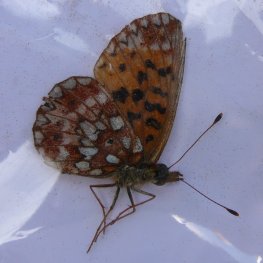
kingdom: Animalia
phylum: Arthropoda
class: Insecta
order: Lepidoptera
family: Nymphalidae
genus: Boloria
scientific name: Boloria selene
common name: Silver-bordered Fritillary
